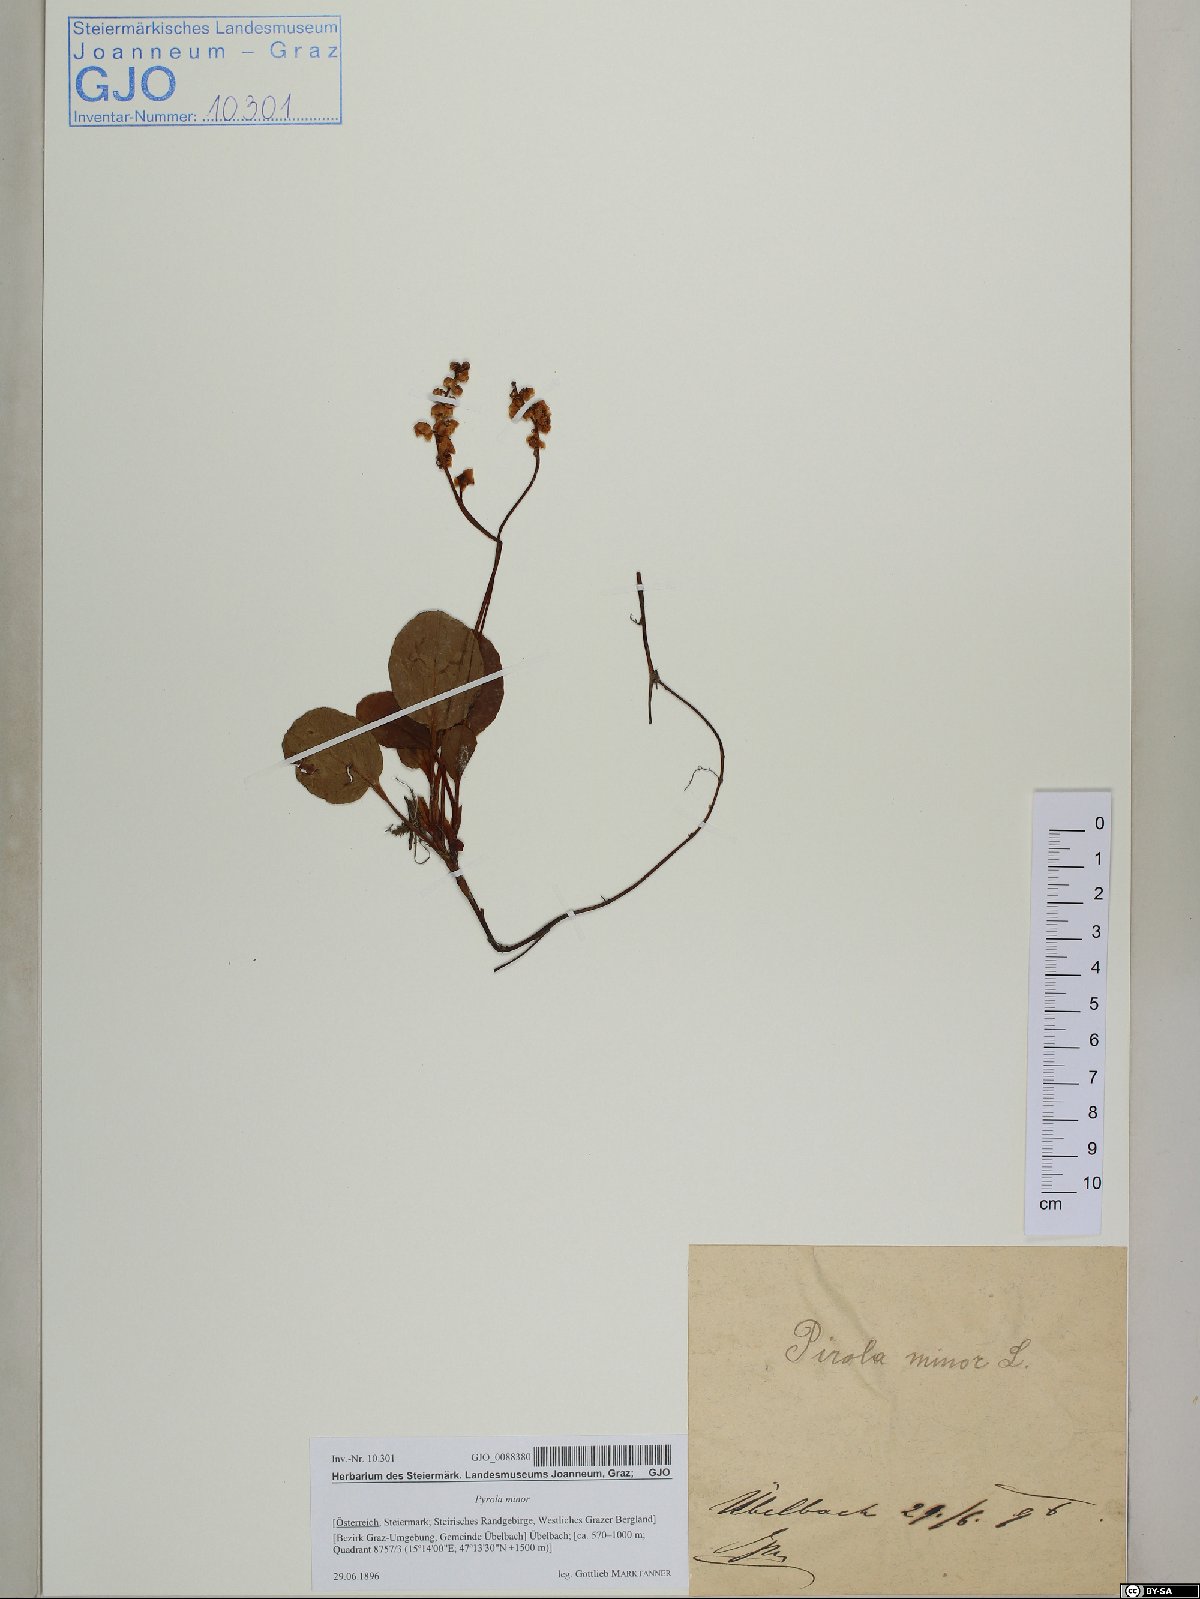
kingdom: Plantae
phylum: Tracheophyta
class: Magnoliopsida
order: Ericales
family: Ericaceae
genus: Pyrola
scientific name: Pyrola minor
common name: Common wintergreen
